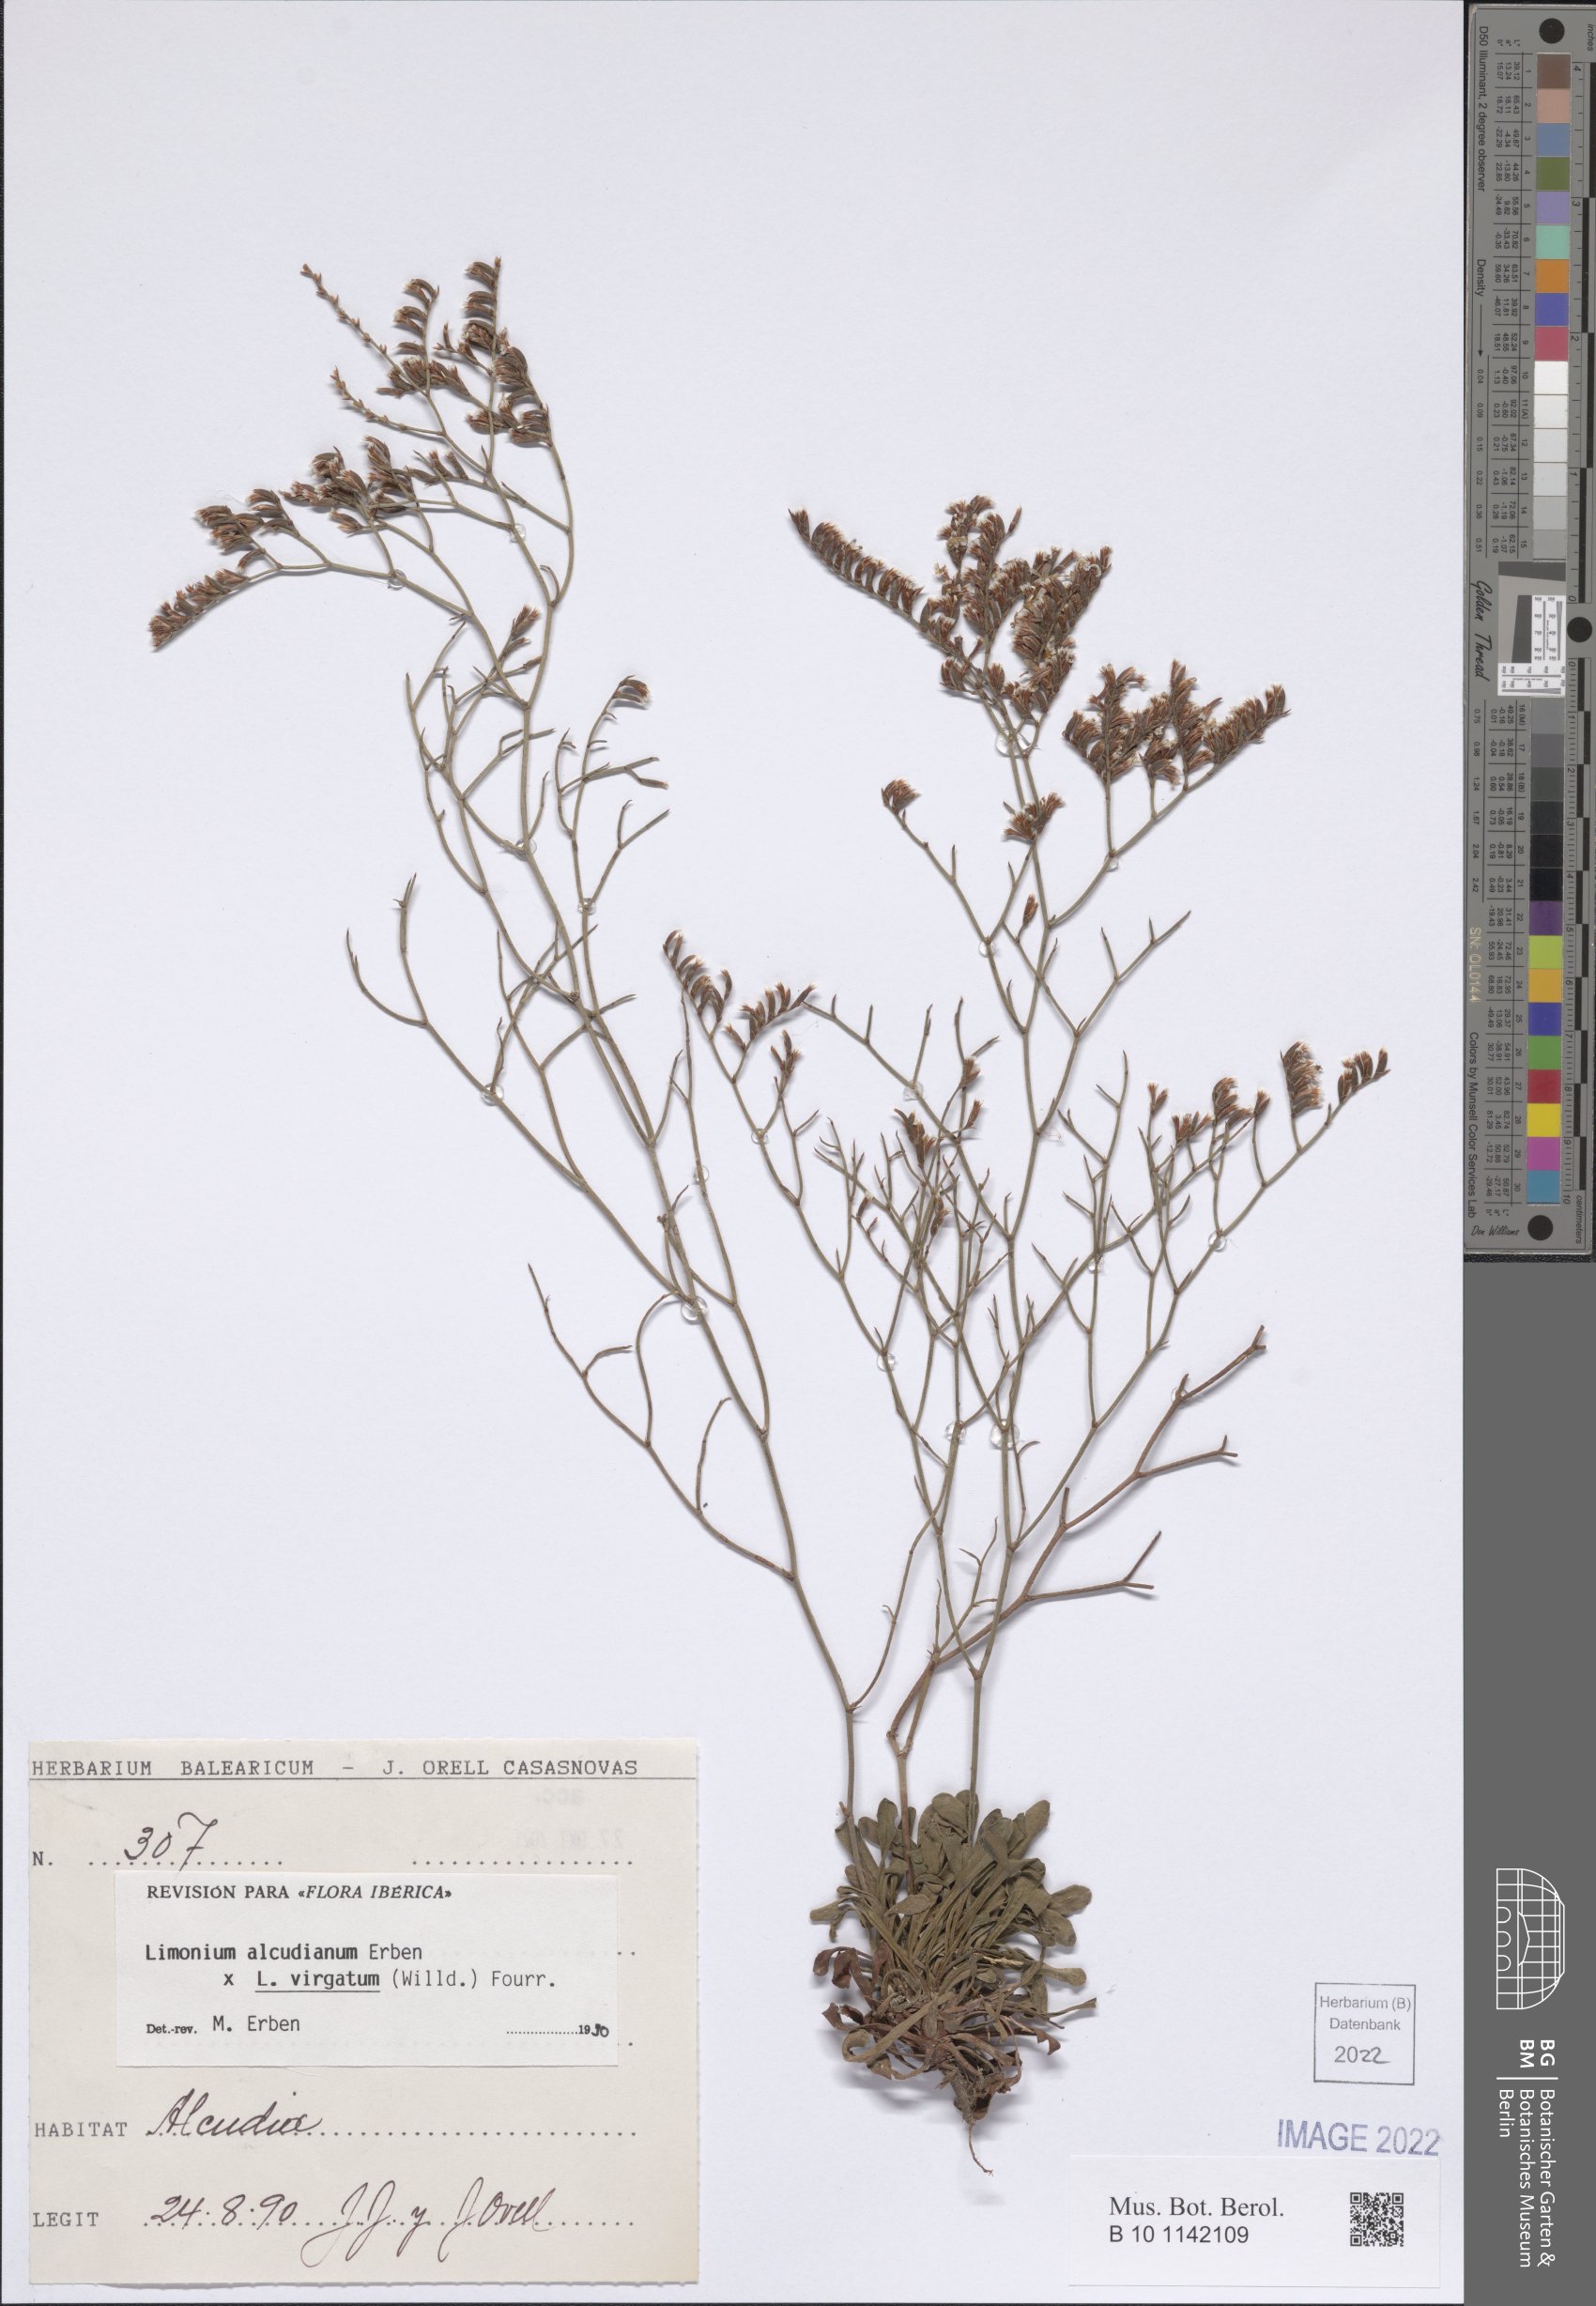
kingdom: Plantae
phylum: Tracheophyta
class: Magnoliopsida
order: Caryophyllales
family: Plumbaginaceae
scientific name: Plumbaginaceae
